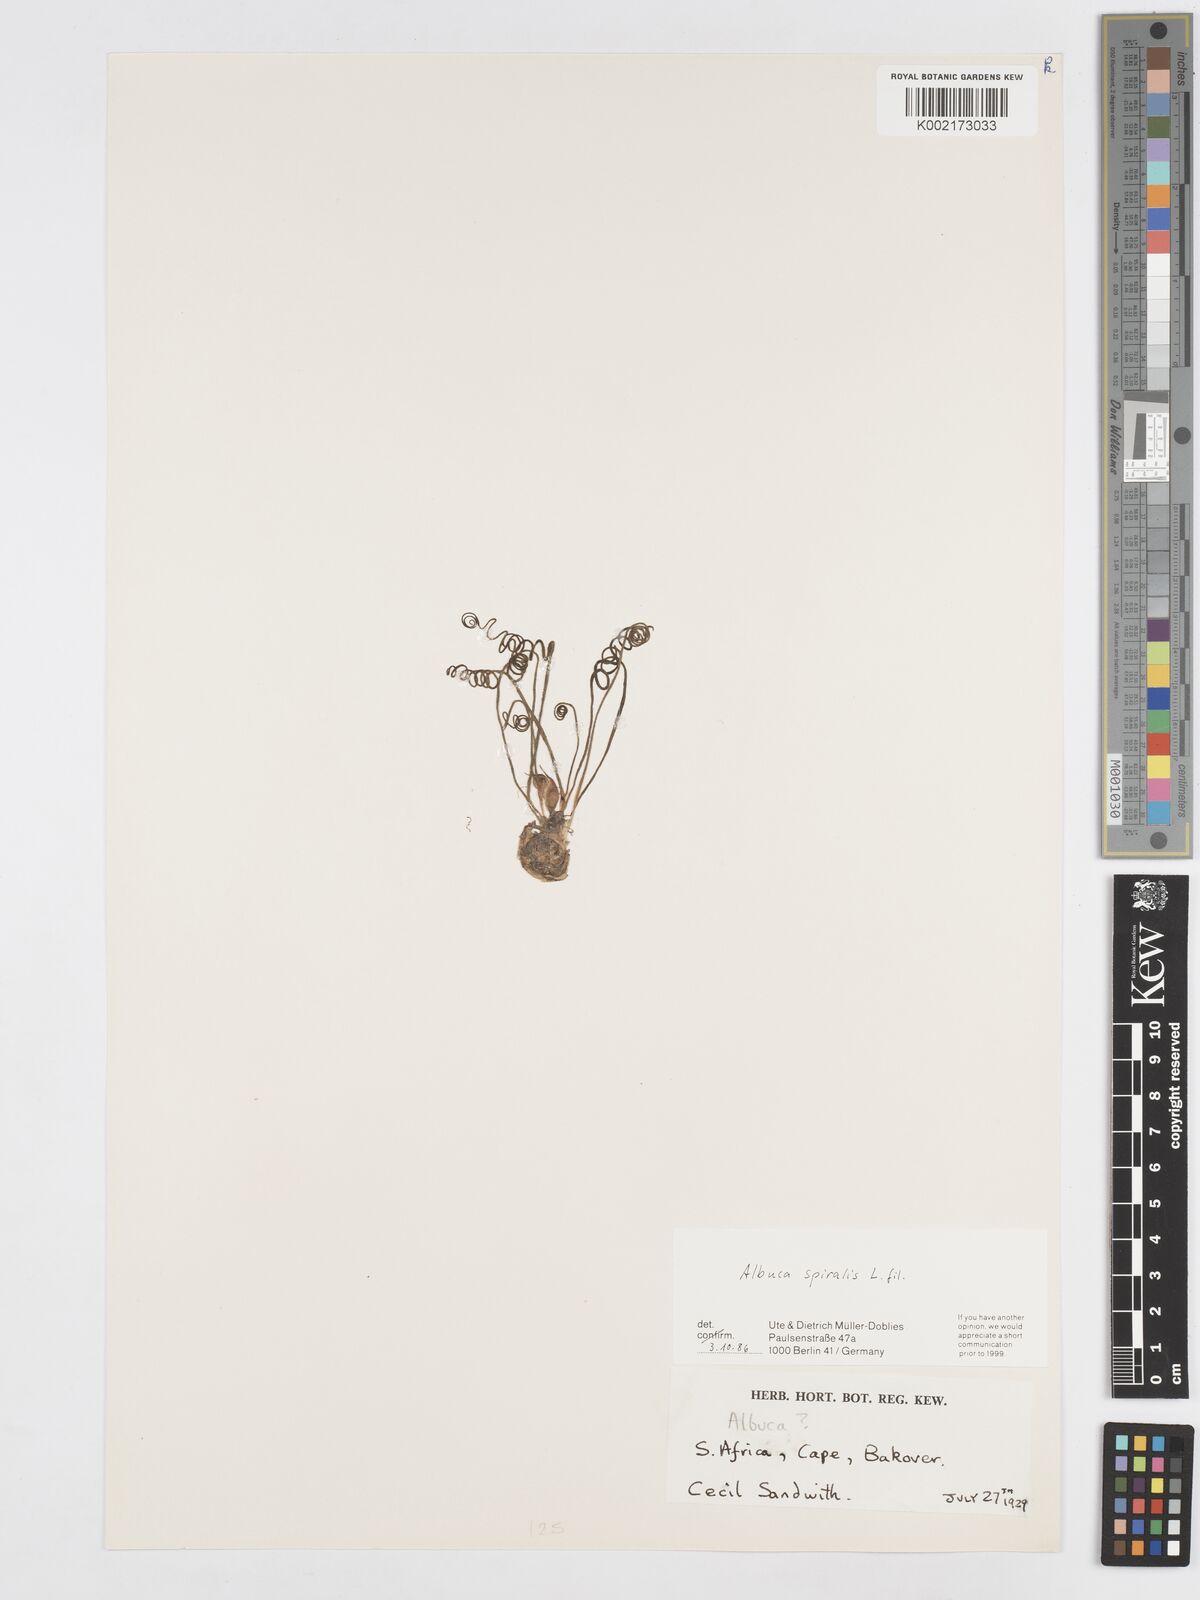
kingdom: Plantae
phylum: Tracheophyta
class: Liliopsida
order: Asparagales
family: Asparagaceae
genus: Albuca
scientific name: Albuca spiralis
